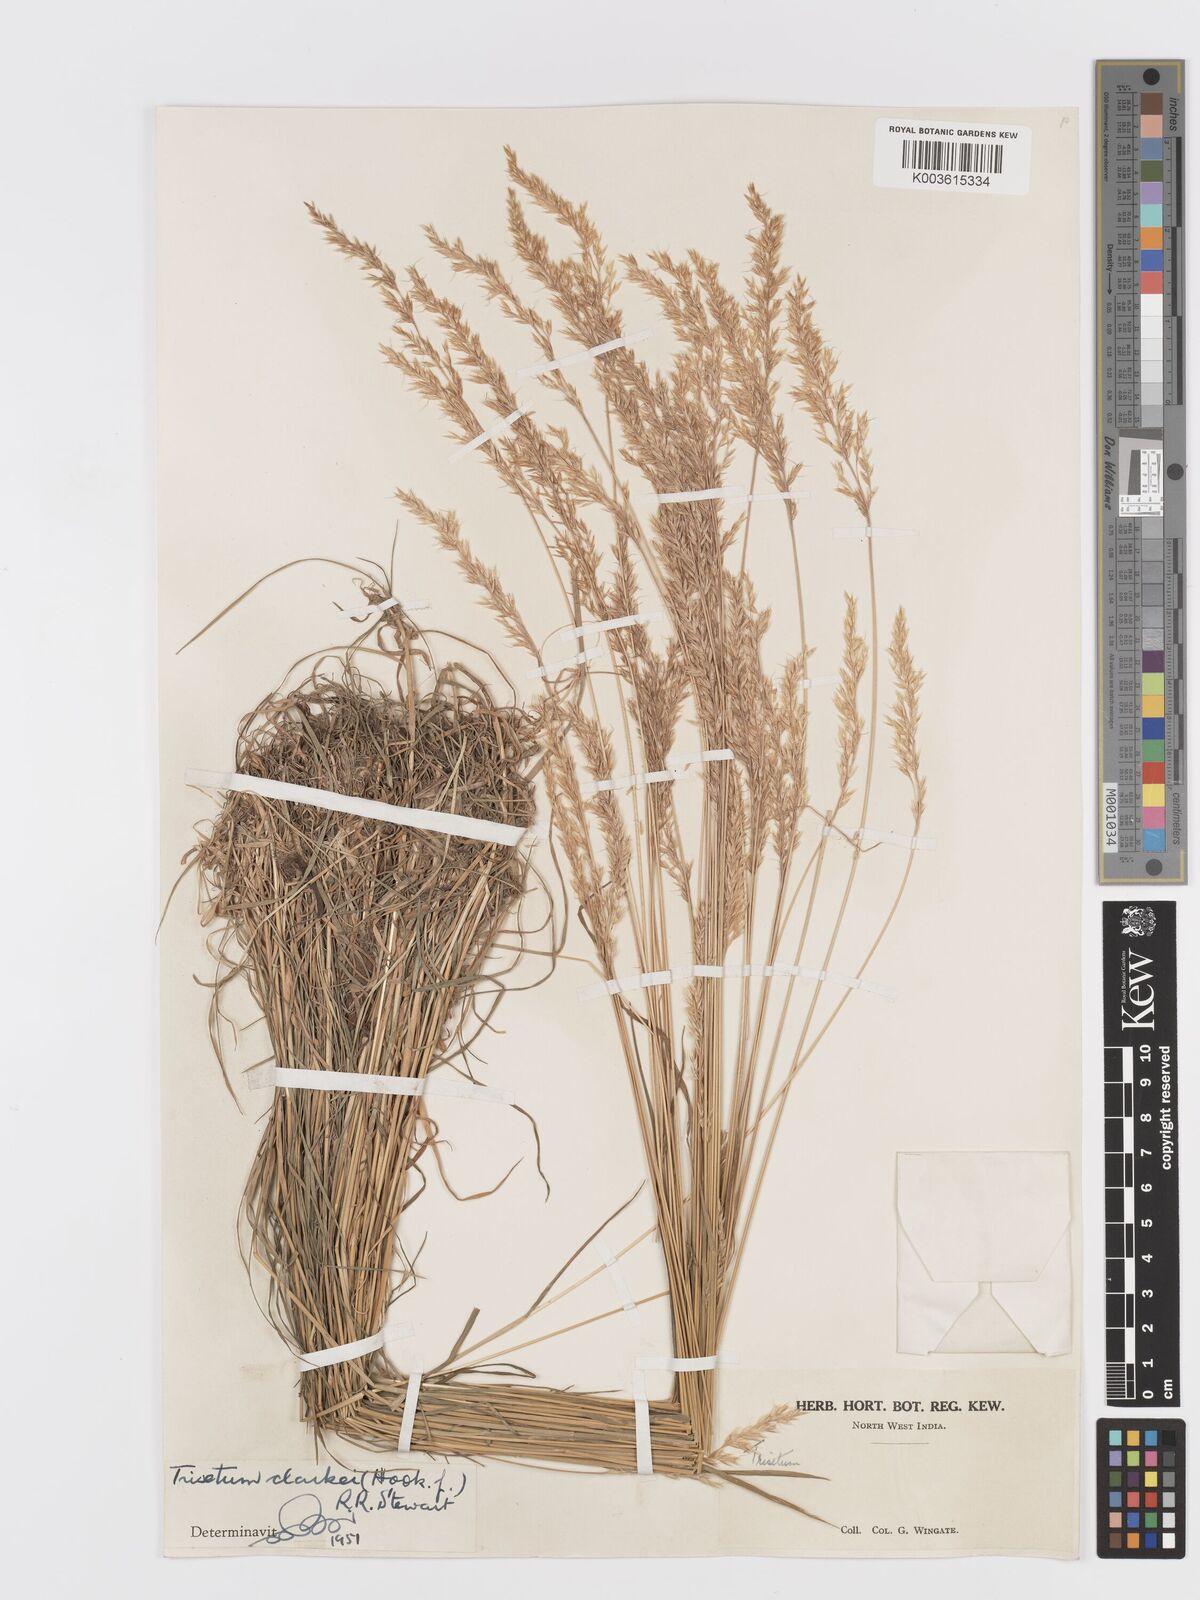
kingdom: Plantae
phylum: Tracheophyta
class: Liliopsida
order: Poales
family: Poaceae
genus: Trisetum
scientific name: Trisetum clarkei
